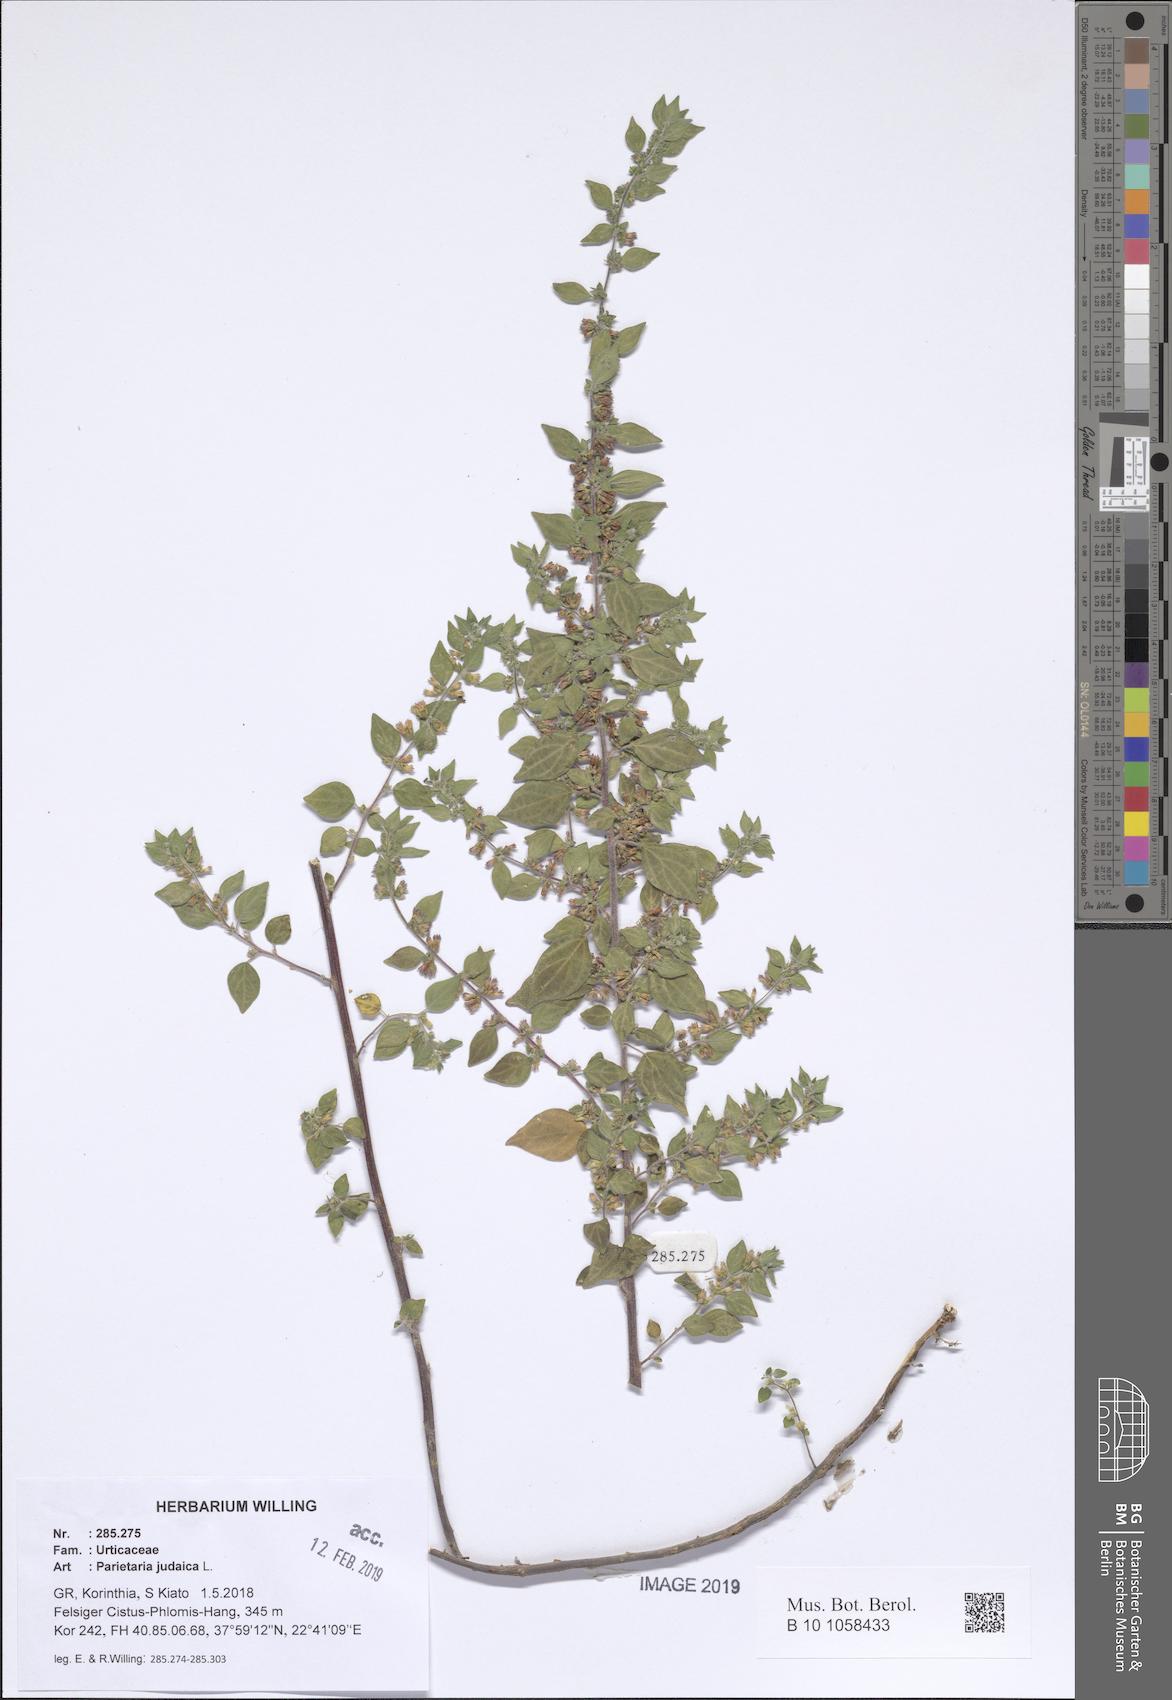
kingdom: Plantae
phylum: Tracheophyta
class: Magnoliopsida
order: Rosales
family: Urticaceae
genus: Parietaria
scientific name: Parietaria judaica
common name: Pellitory-of-the-wall
